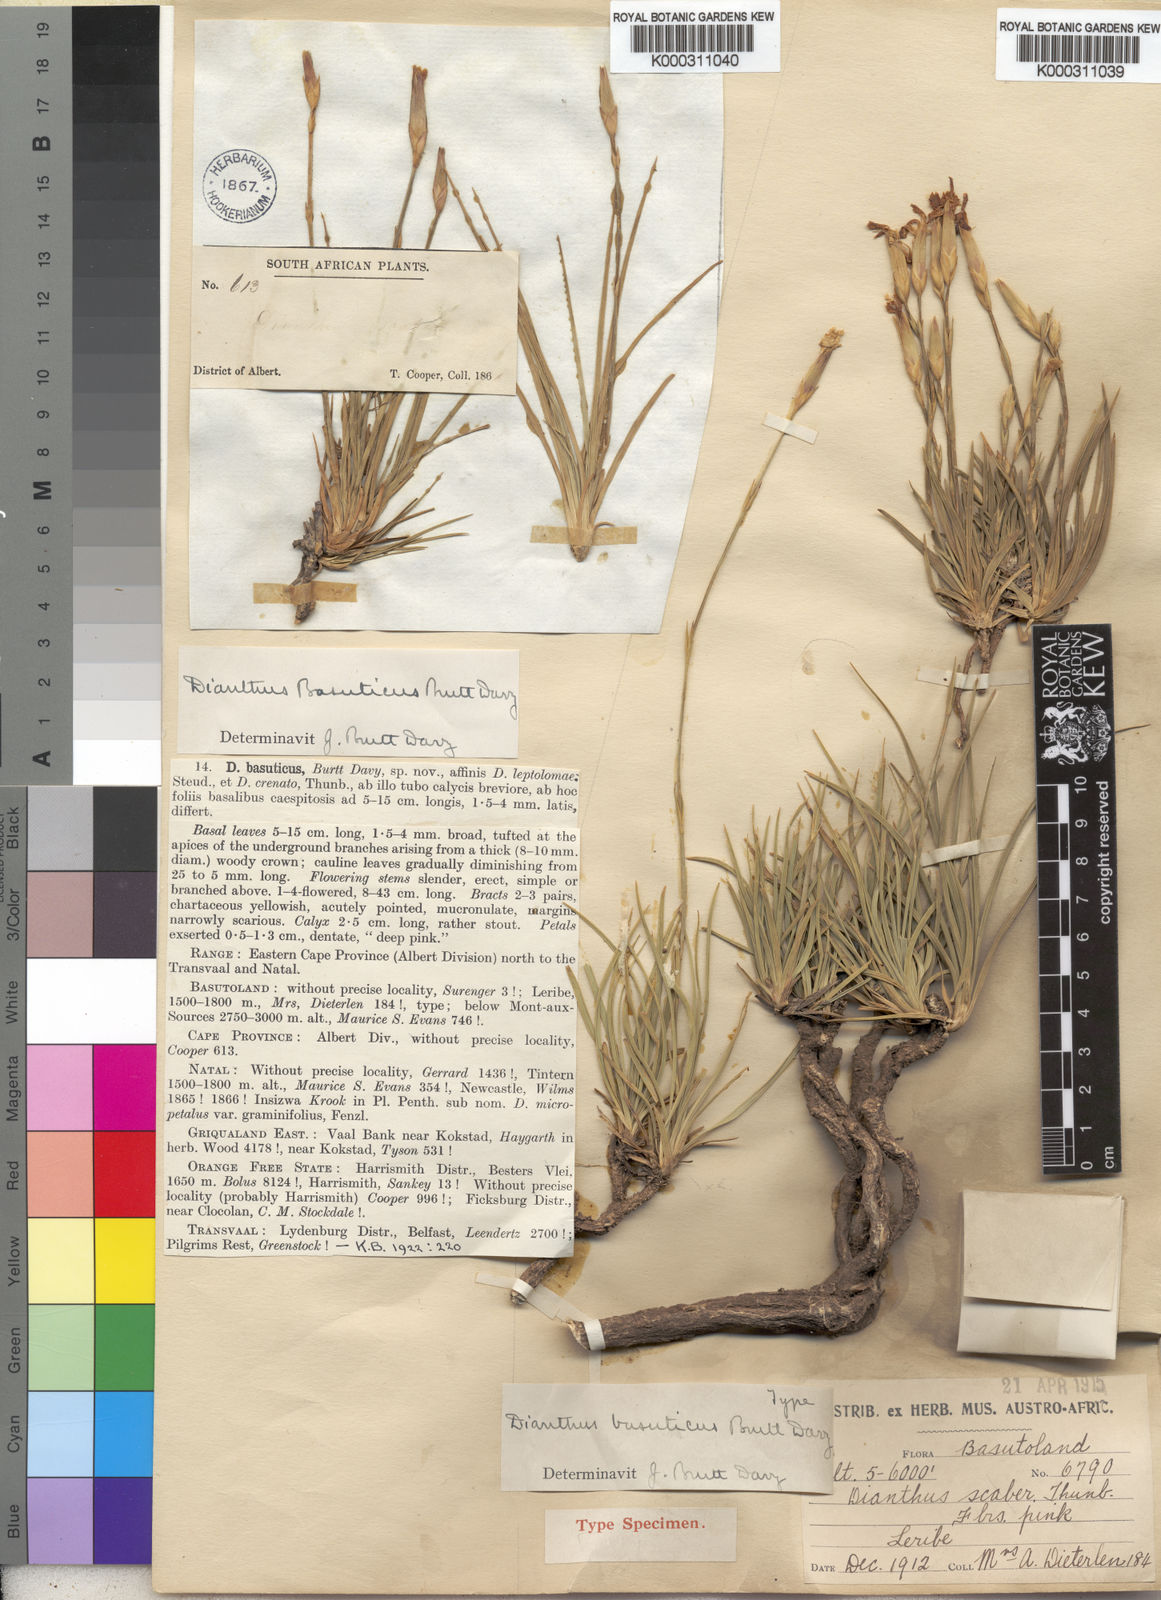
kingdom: Plantae
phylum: Tracheophyta
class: Magnoliopsida
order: Caryophyllales
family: Caryophyllaceae
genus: Dianthus
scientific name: Dianthus basuticus
